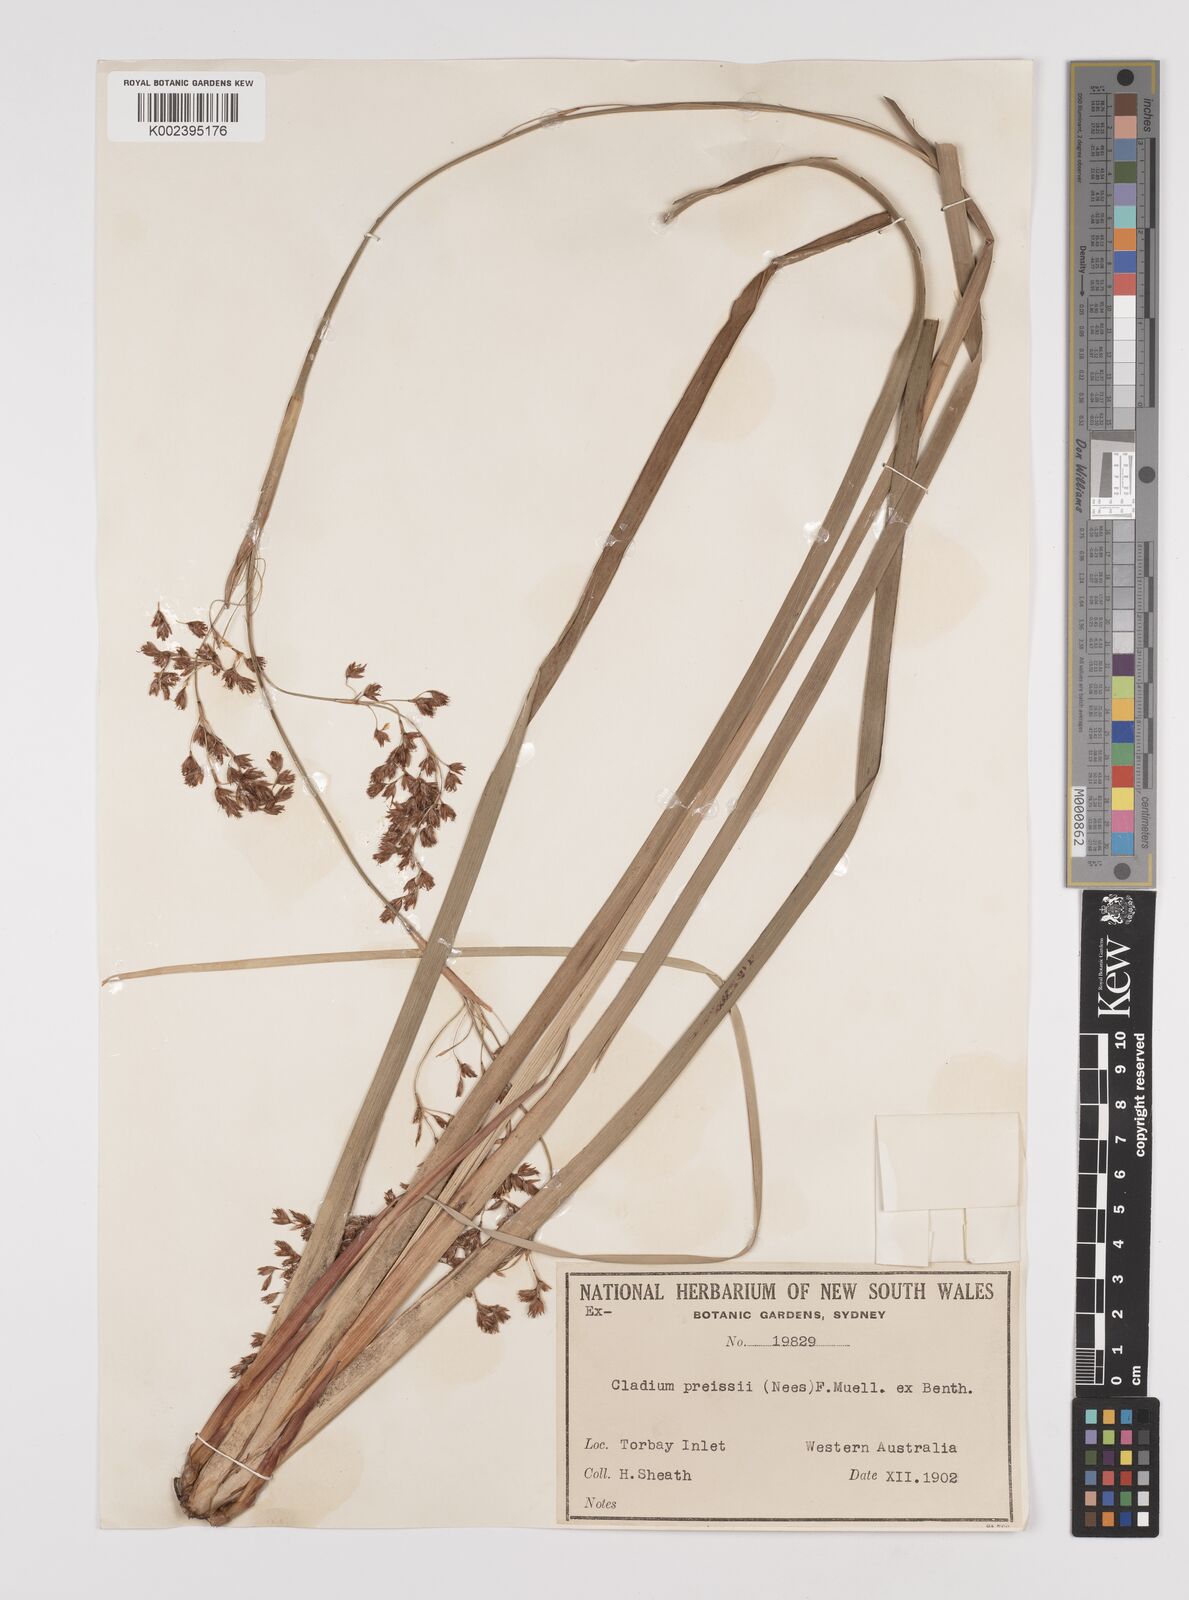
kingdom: Plantae
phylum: Tracheophyta
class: Liliopsida
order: Poales
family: Cyperaceae
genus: Machaerina
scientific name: Machaerina preissii
